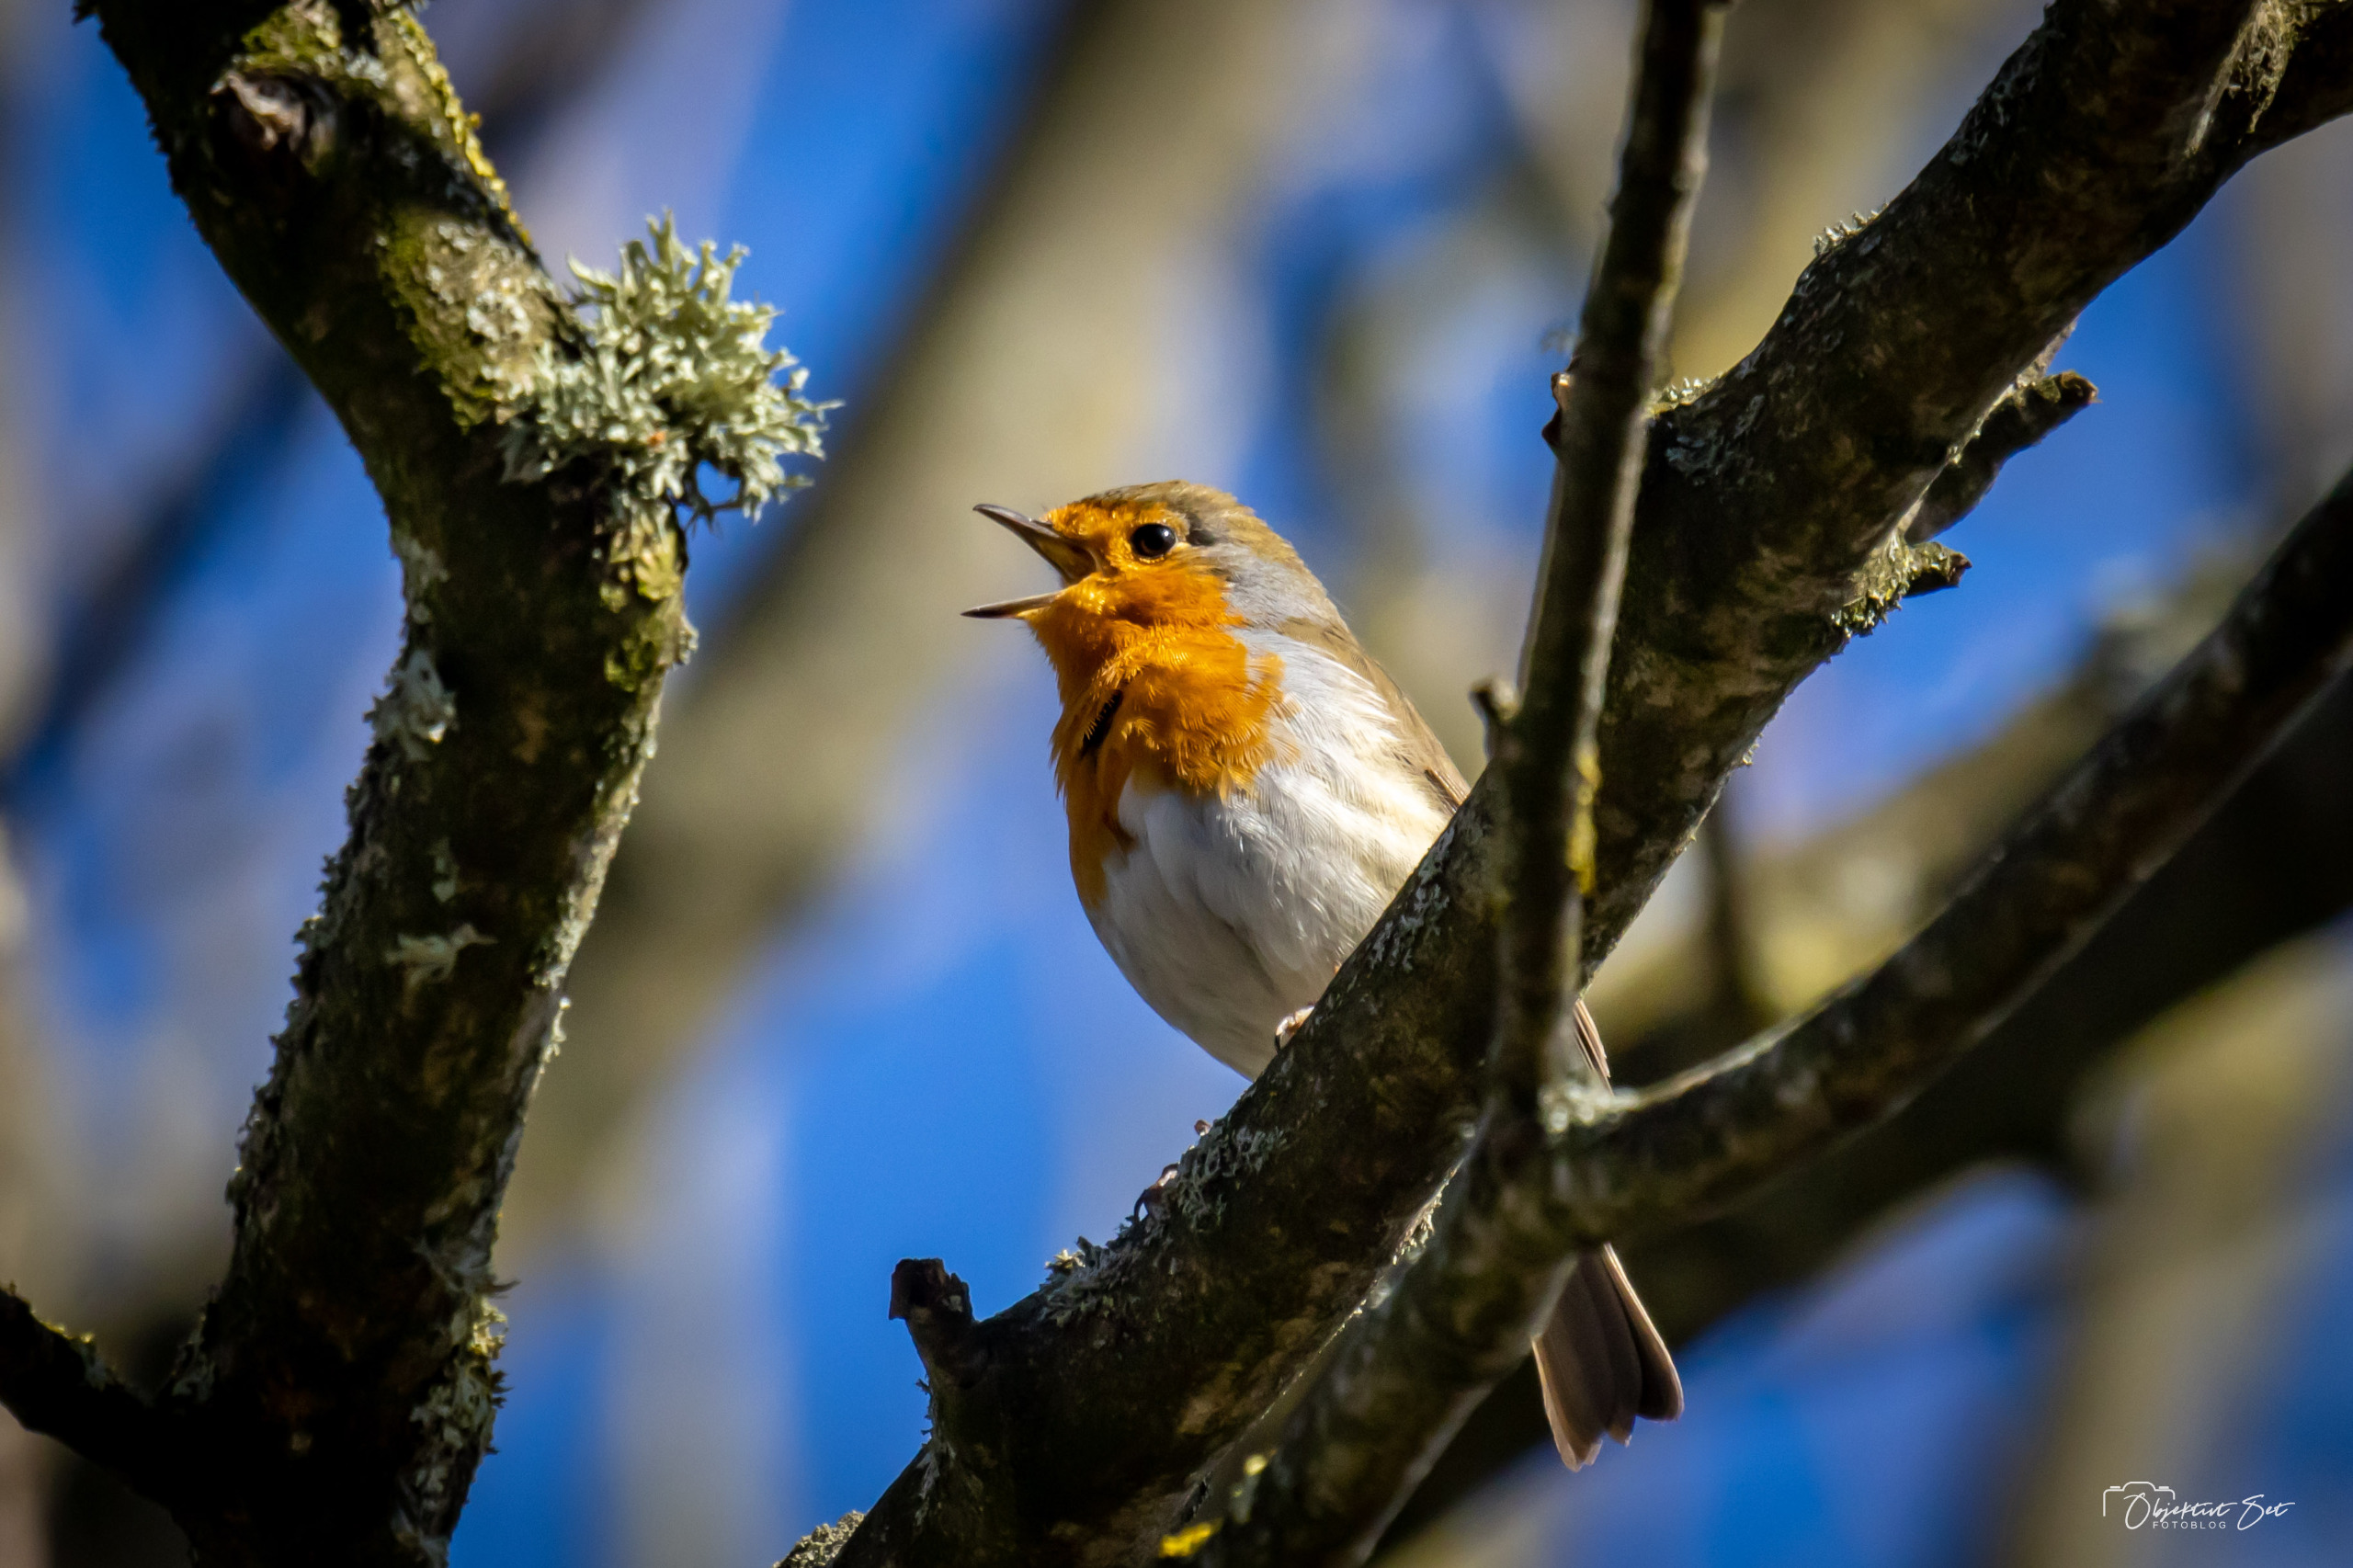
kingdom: Animalia
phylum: Chordata
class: Aves
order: Passeriformes
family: Muscicapidae
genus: Erithacus
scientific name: Erithacus rubecula
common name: Rødhals/rødkælk
